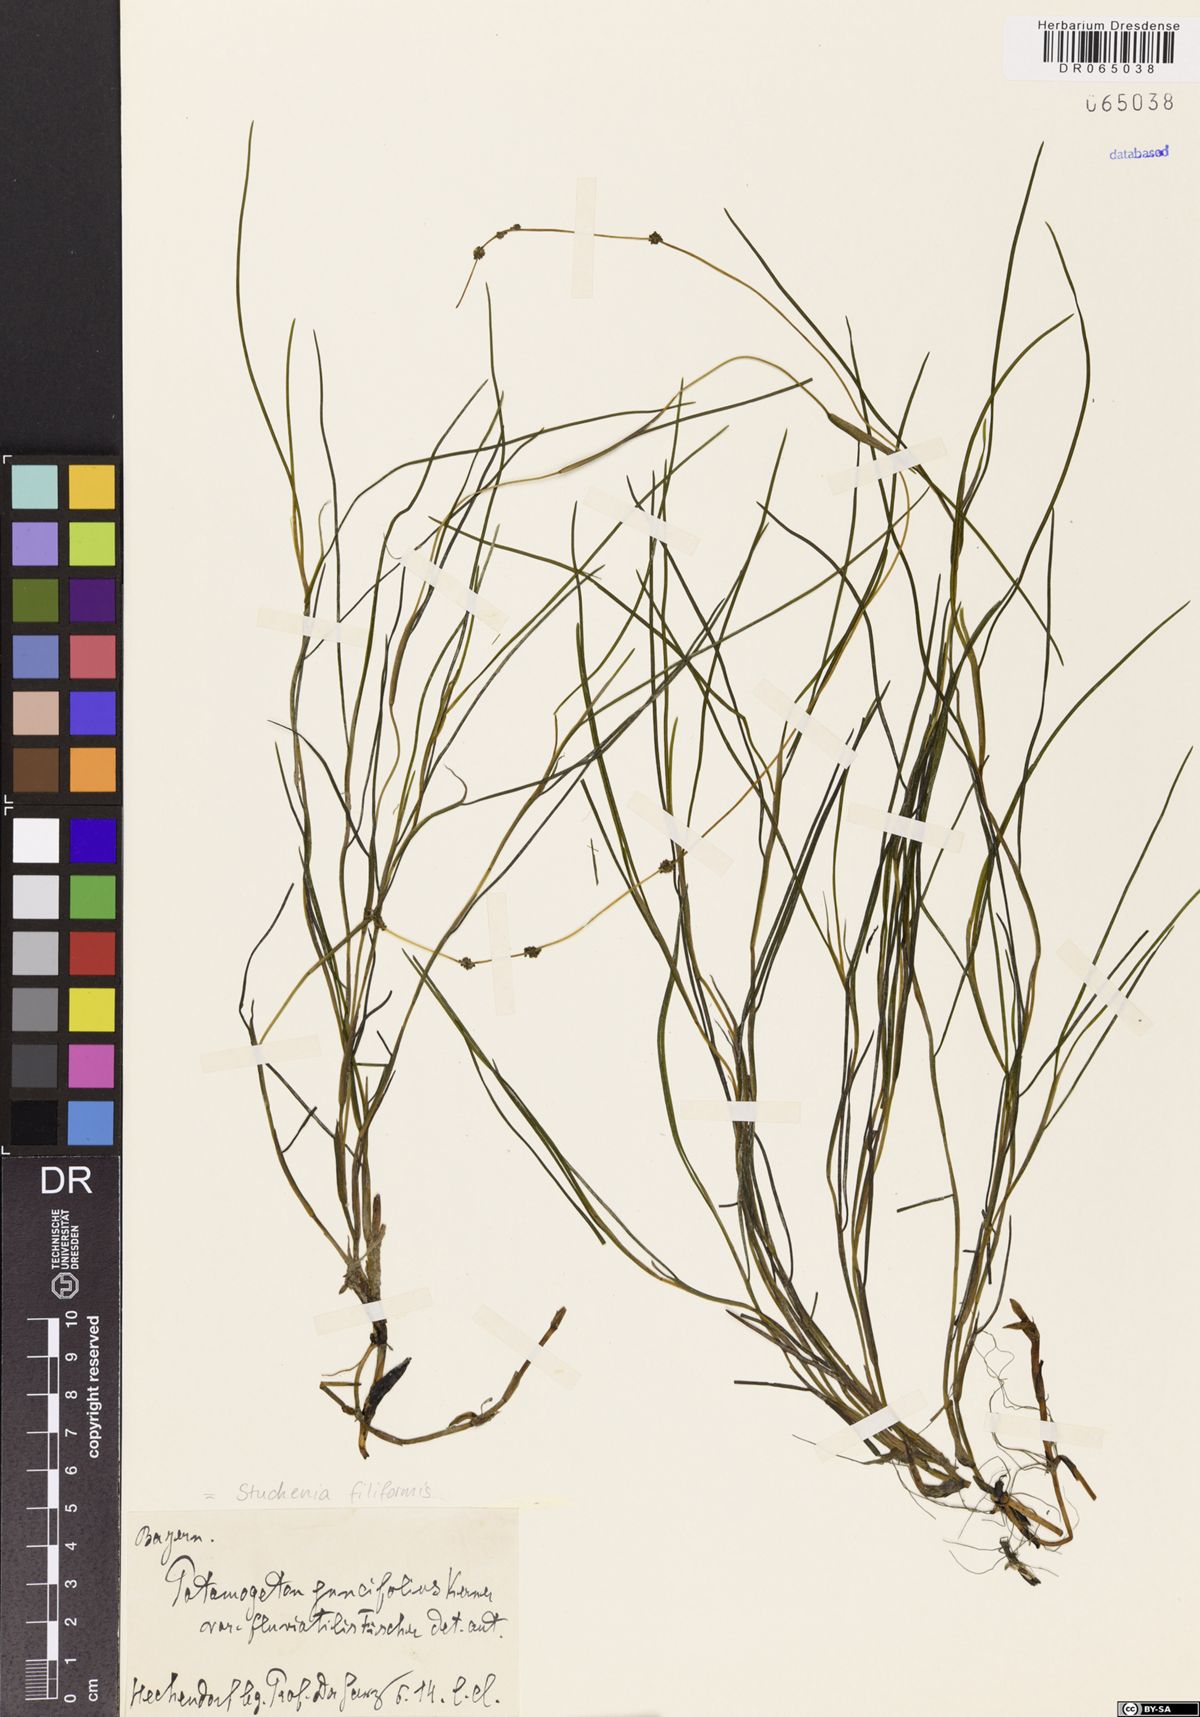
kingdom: Plantae
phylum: Tracheophyta
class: Liliopsida
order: Alismatales
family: Potamogetonaceae
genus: Stuckenia
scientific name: Stuckenia filiformis
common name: Alpine thread-leaved pondweed
